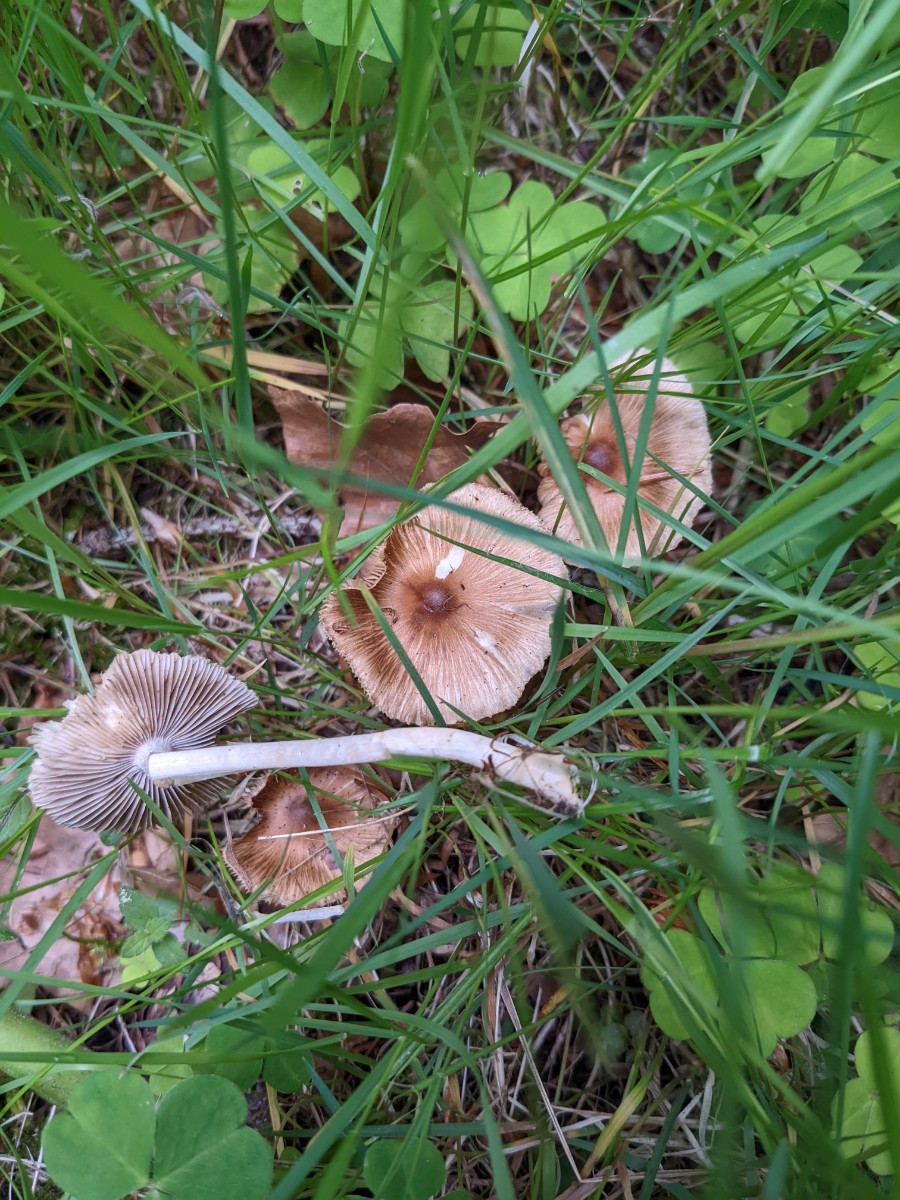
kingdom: Fungi
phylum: Basidiomycota
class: Agaricomycetes
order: Agaricales
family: Inocybaceae
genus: Inocybe
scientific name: Inocybe fuscidula
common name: brunfibret trævlhat
